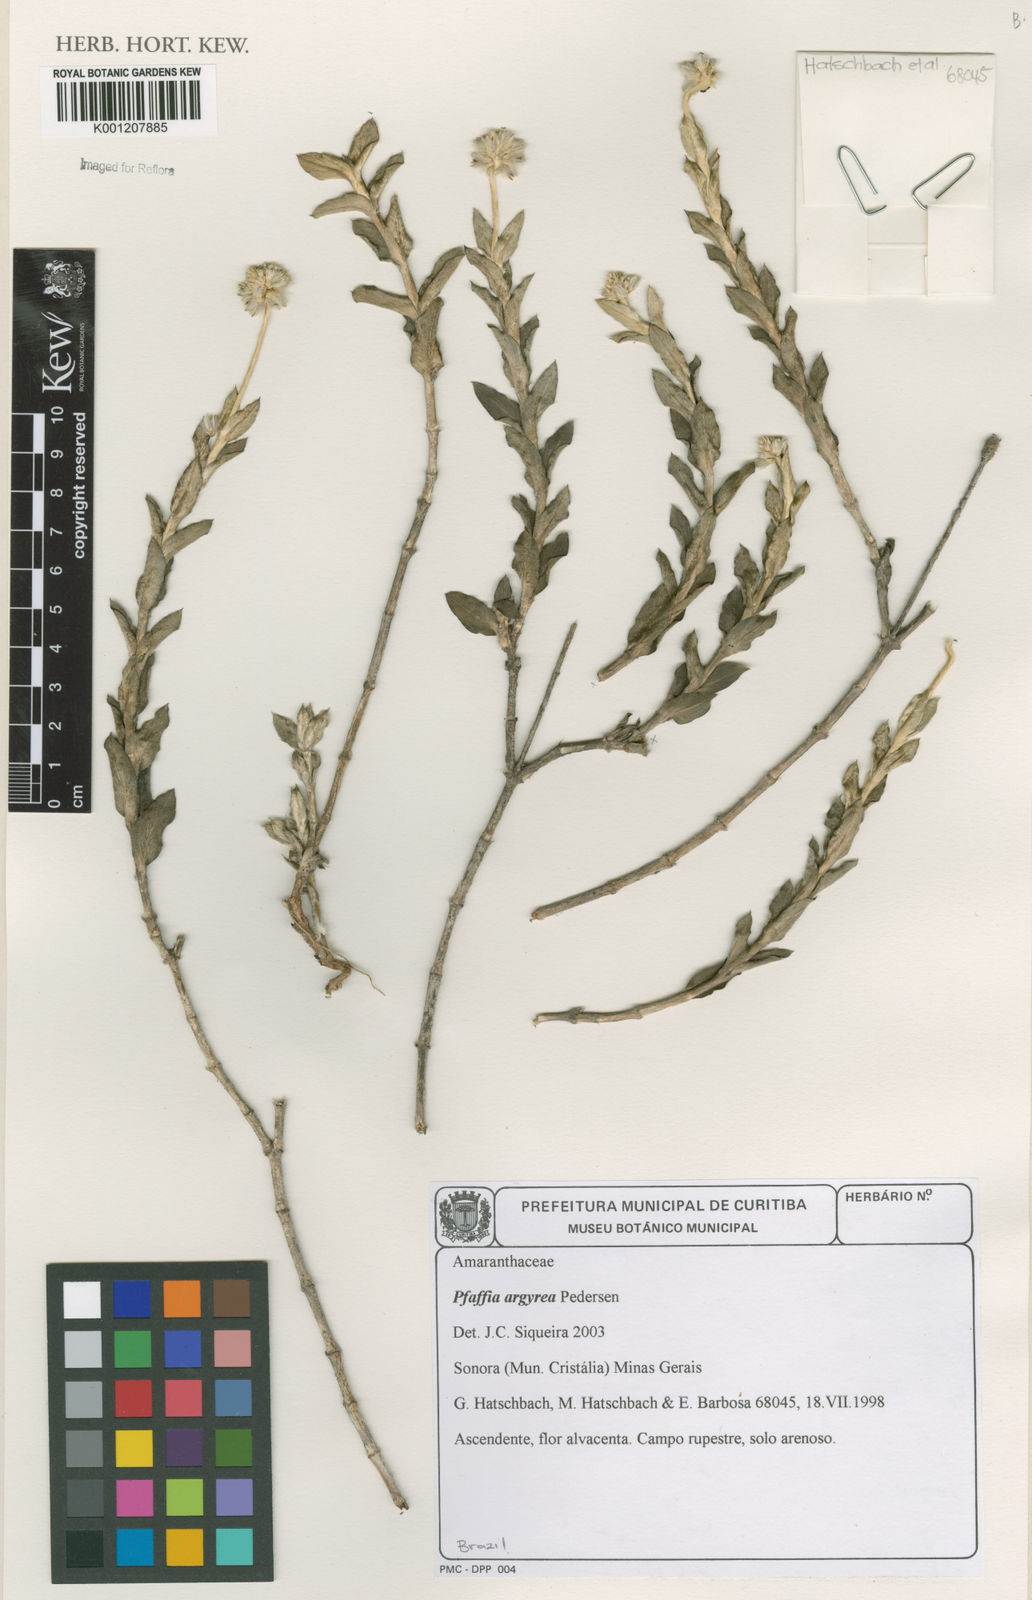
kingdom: Plantae
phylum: Tracheophyta
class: Magnoliopsida
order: Caryophyllales
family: Amaranthaceae
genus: Pfaffia
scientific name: Pfaffia argyrea
